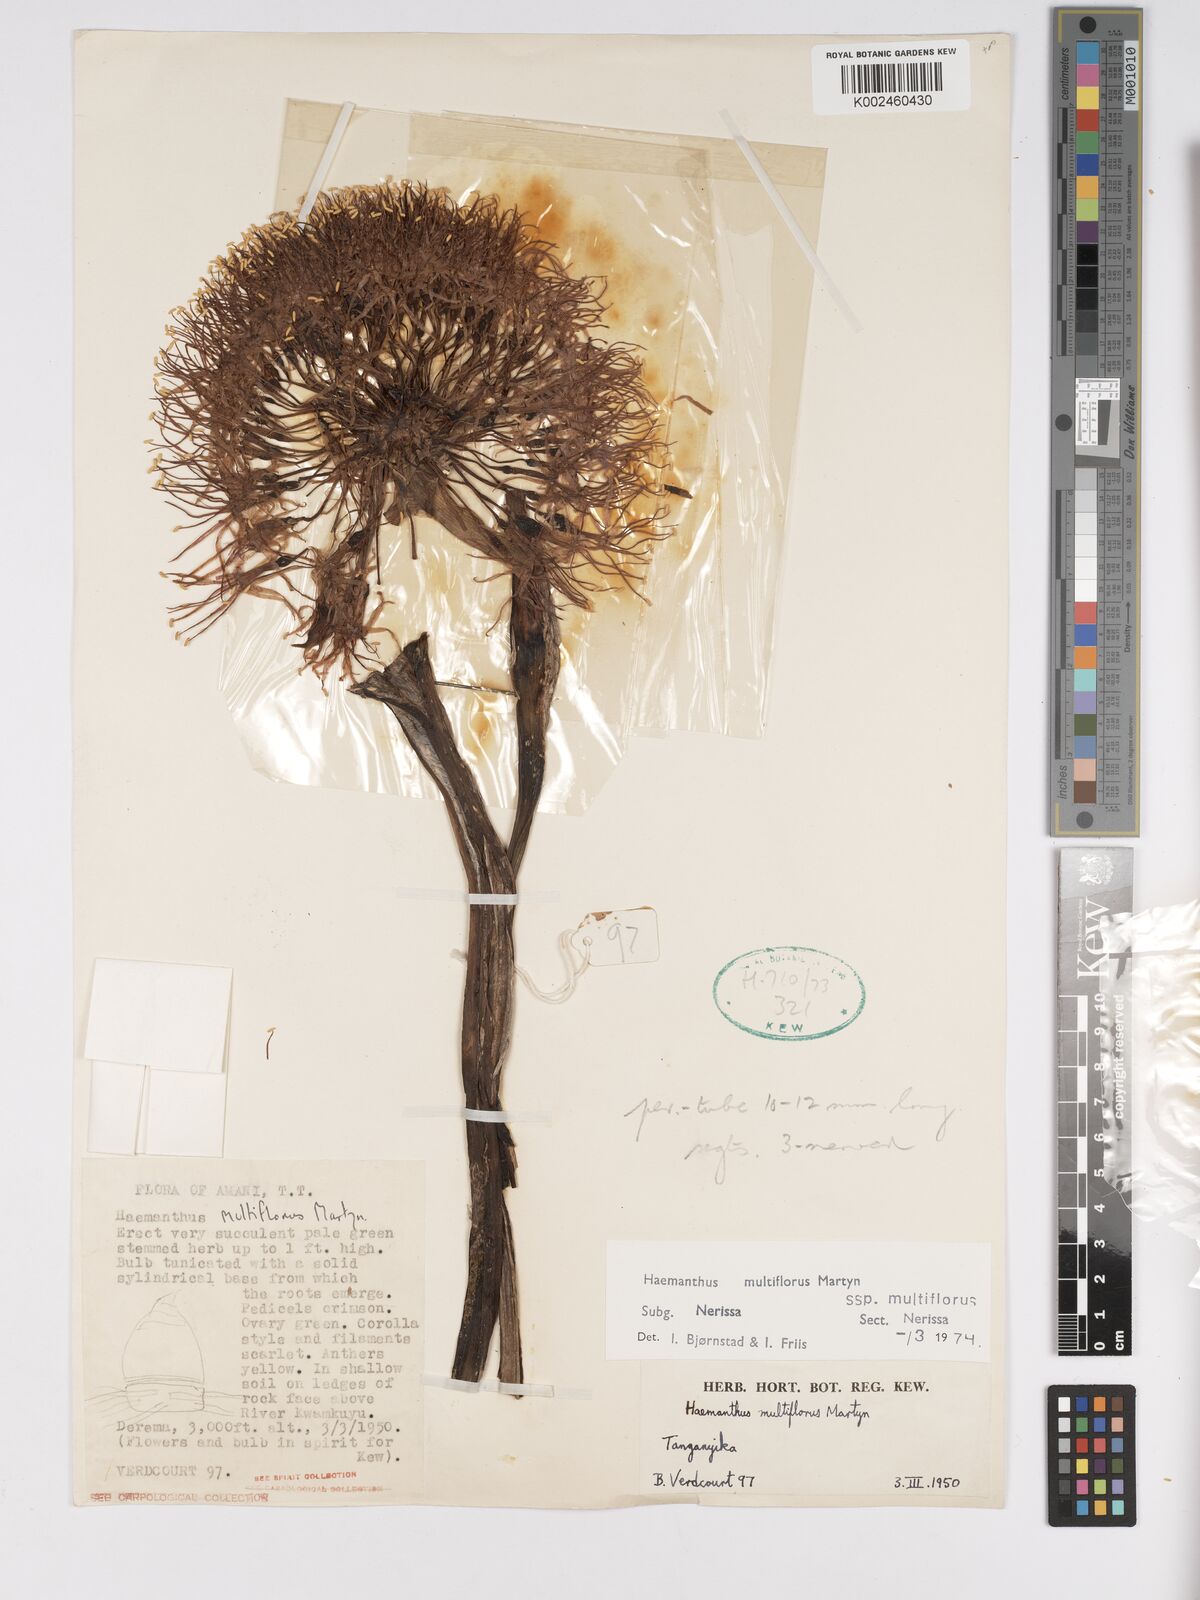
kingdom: Plantae
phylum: Tracheophyta
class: Liliopsida
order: Asparagales
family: Amaryllidaceae
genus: Scadoxus
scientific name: Scadoxus multiflorus
